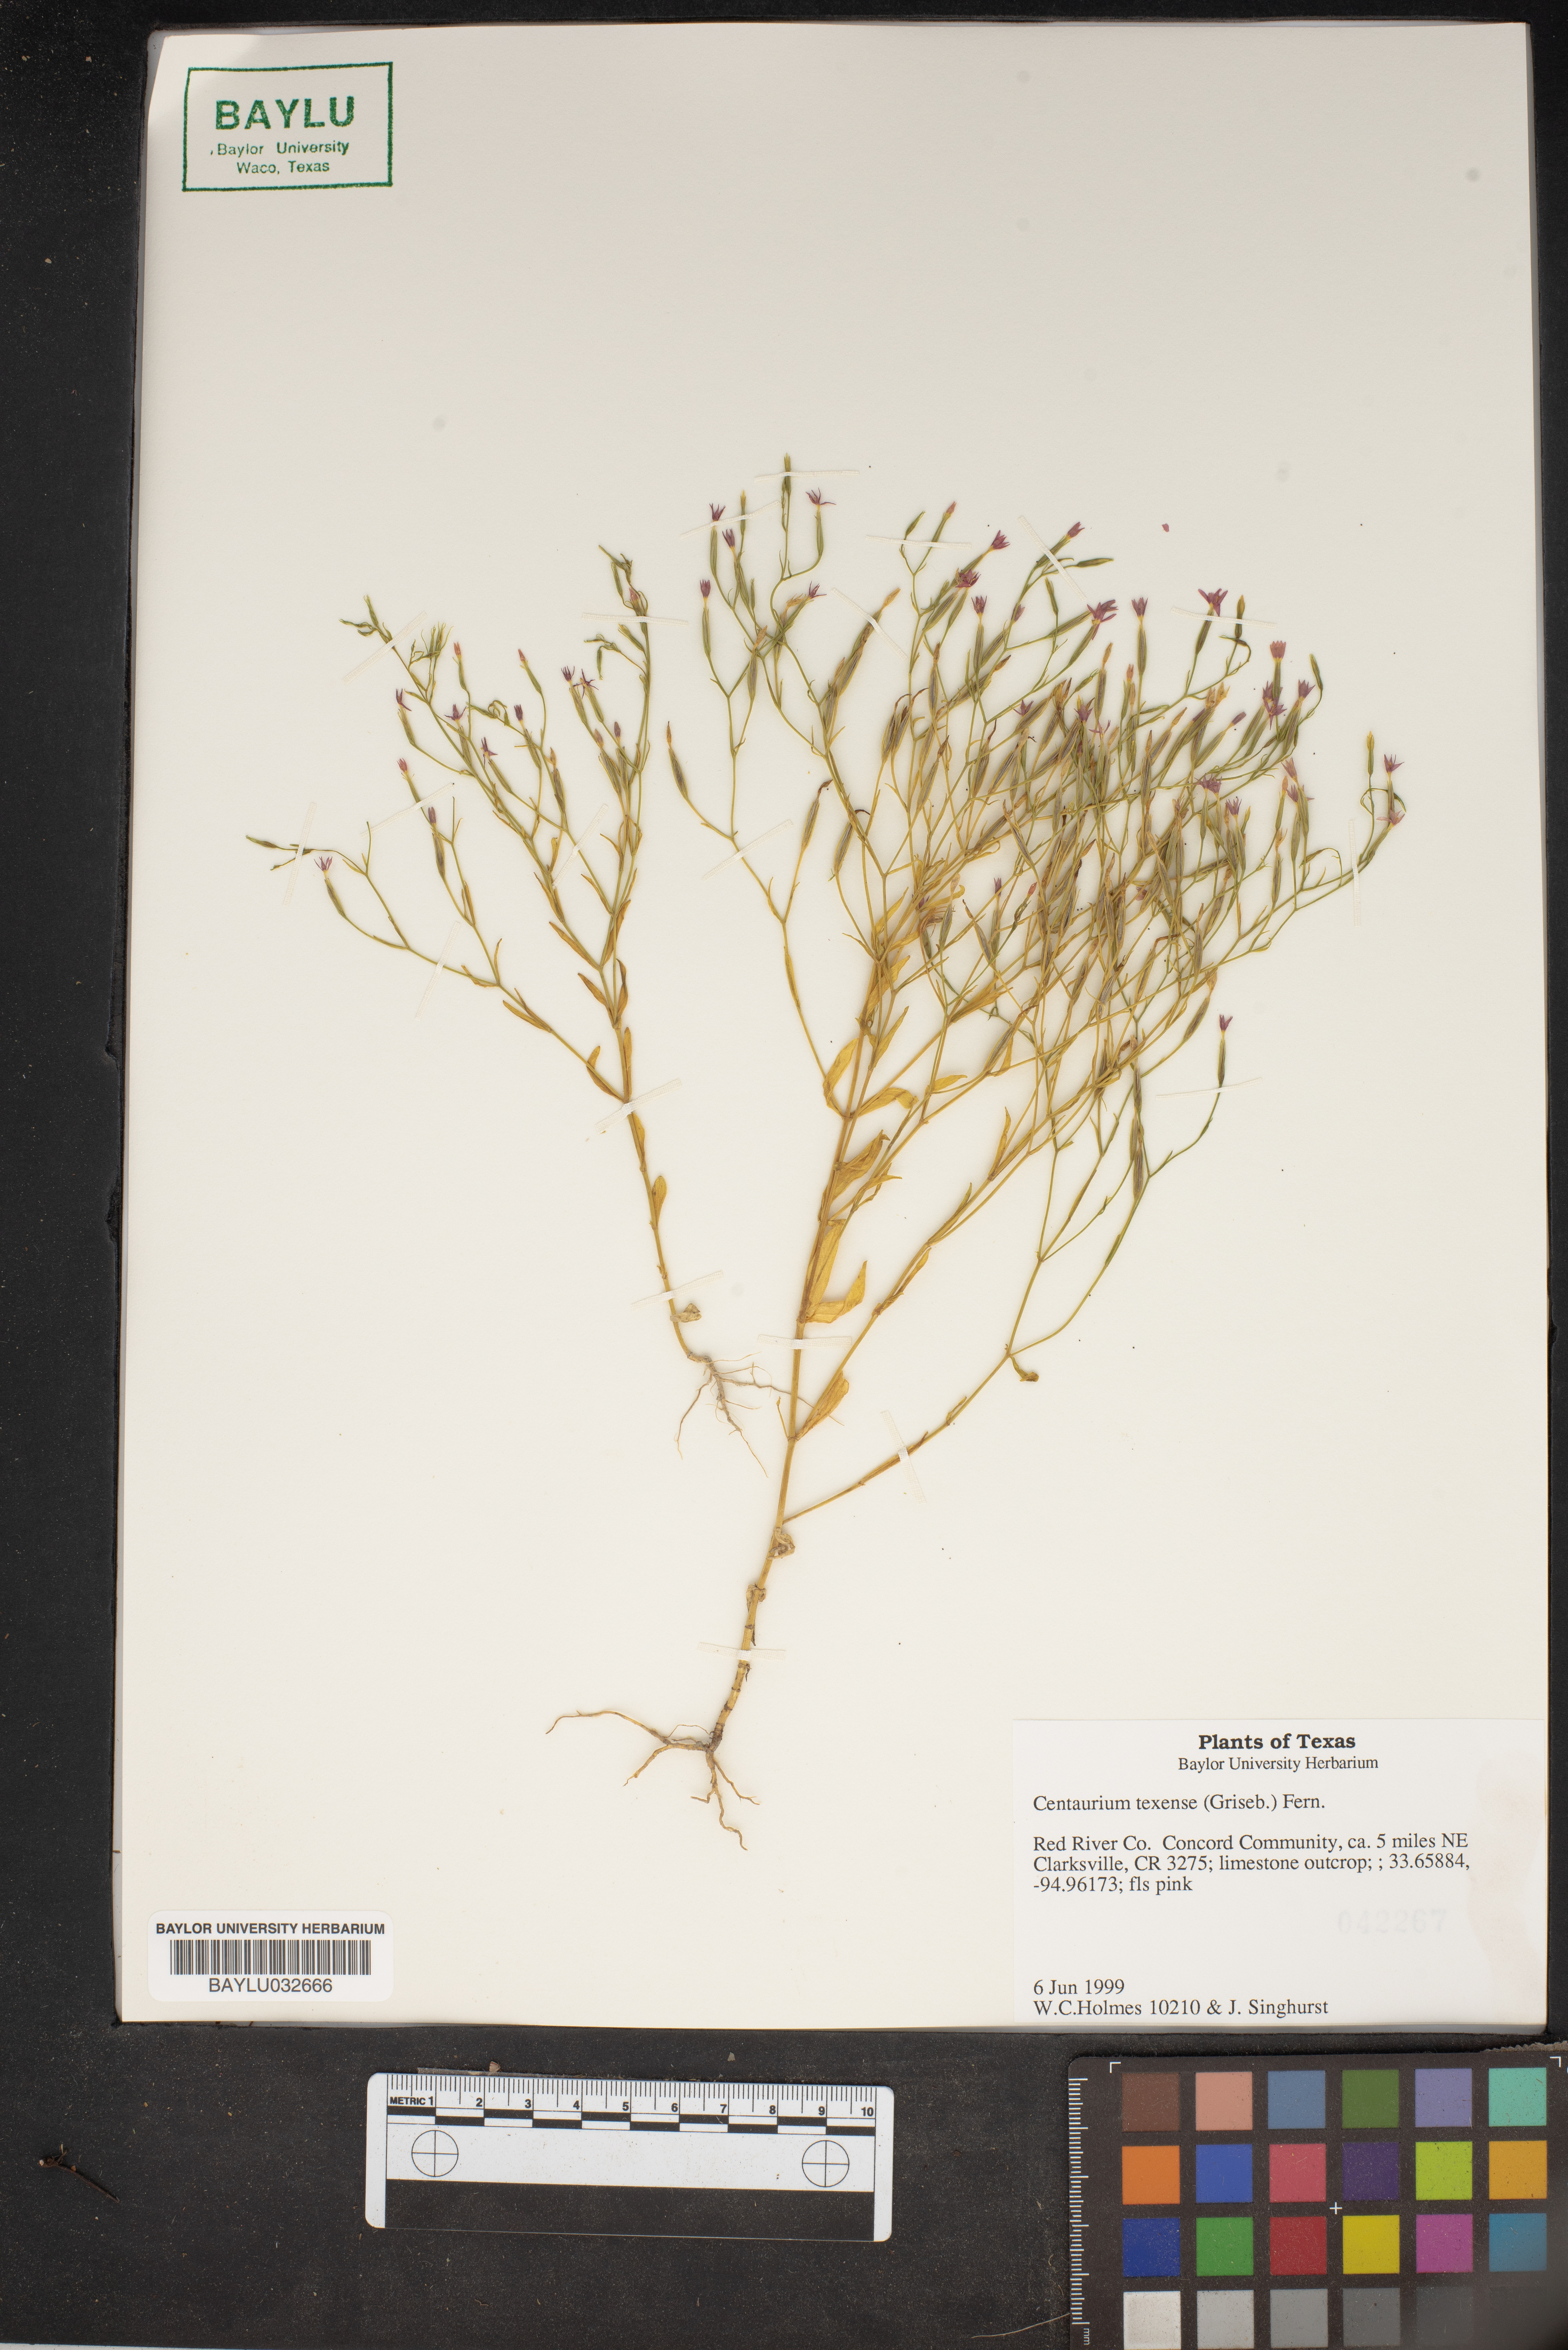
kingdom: Plantae
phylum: Tracheophyta
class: Magnoliopsida
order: Gentianales
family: Gentianaceae
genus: Zeltnera
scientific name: Zeltnera texensis
